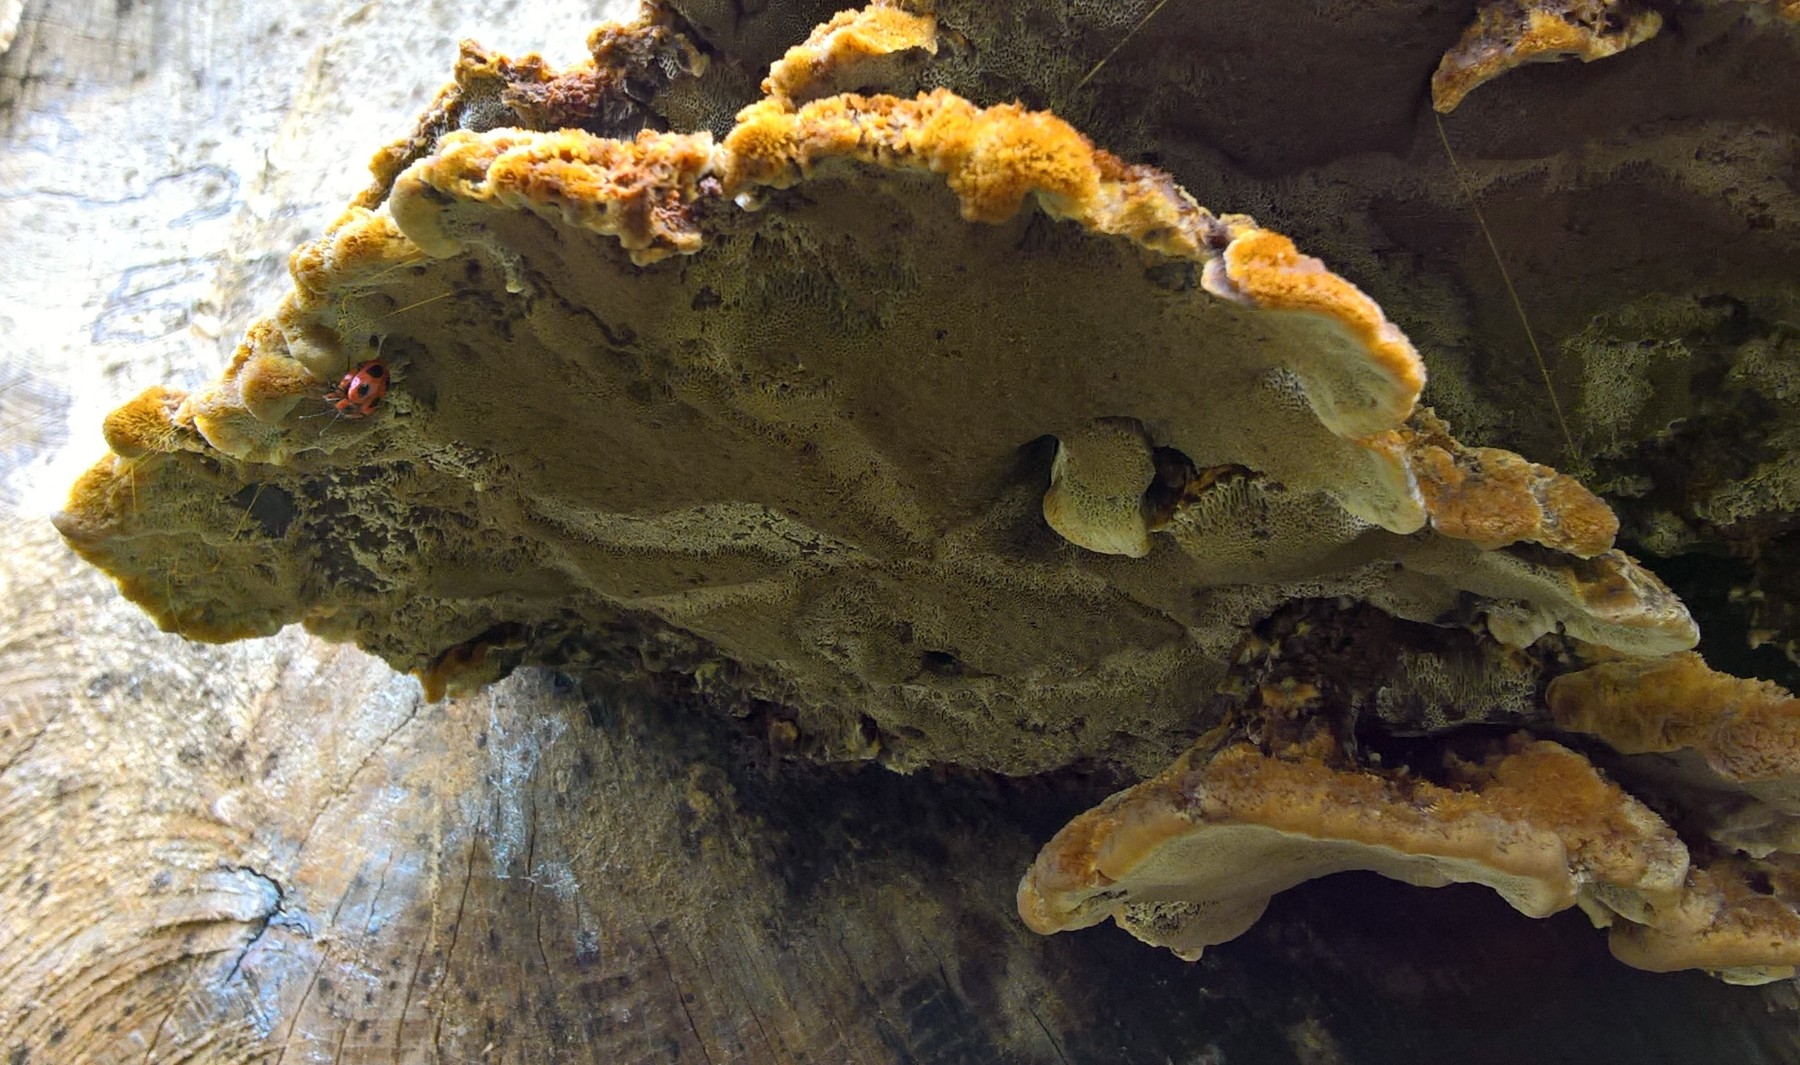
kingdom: Fungi
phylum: Basidiomycota
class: Agaricomycetes
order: Hymenochaetales
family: Hymenochaetaceae
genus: Inonotus
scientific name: Inonotus cuticularis
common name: kroghåret spejlporesvamp
